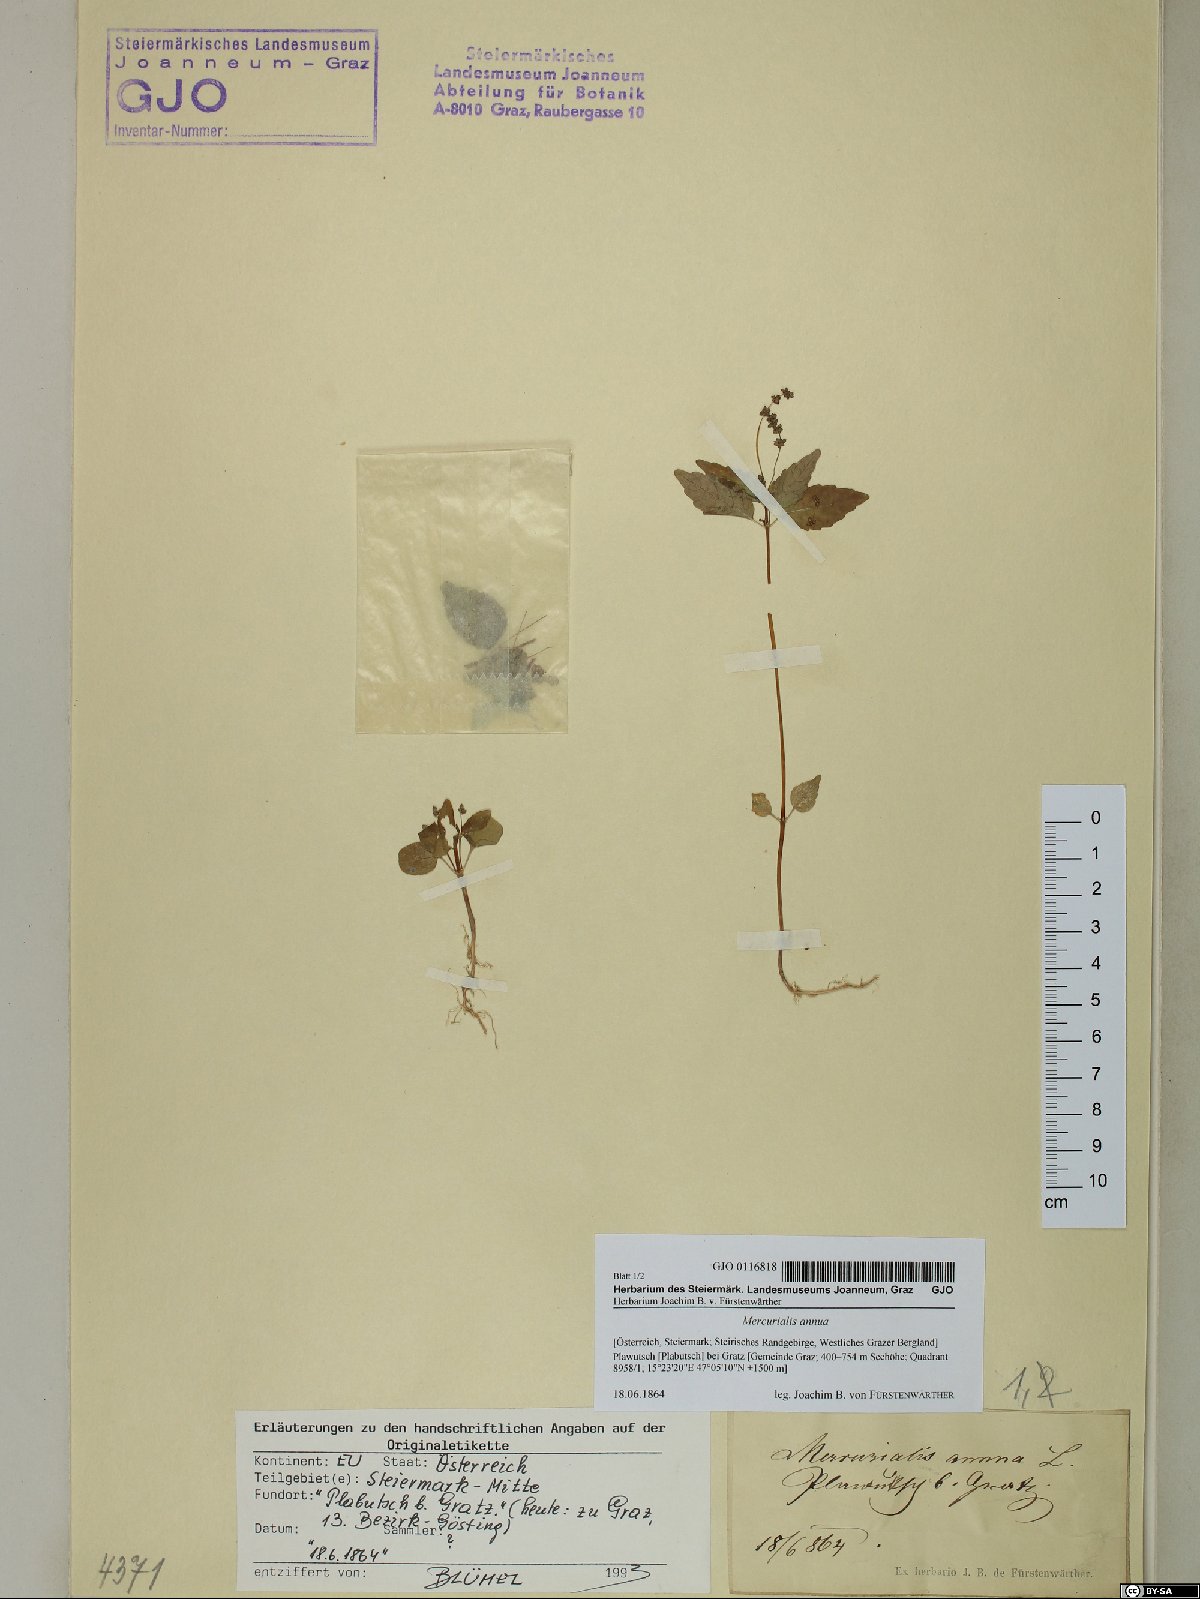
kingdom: Plantae
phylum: Tracheophyta
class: Magnoliopsida
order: Malpighiales
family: Euphorbiaceae
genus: Mercurialis
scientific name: Mercurialis annua
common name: Annual mercury
